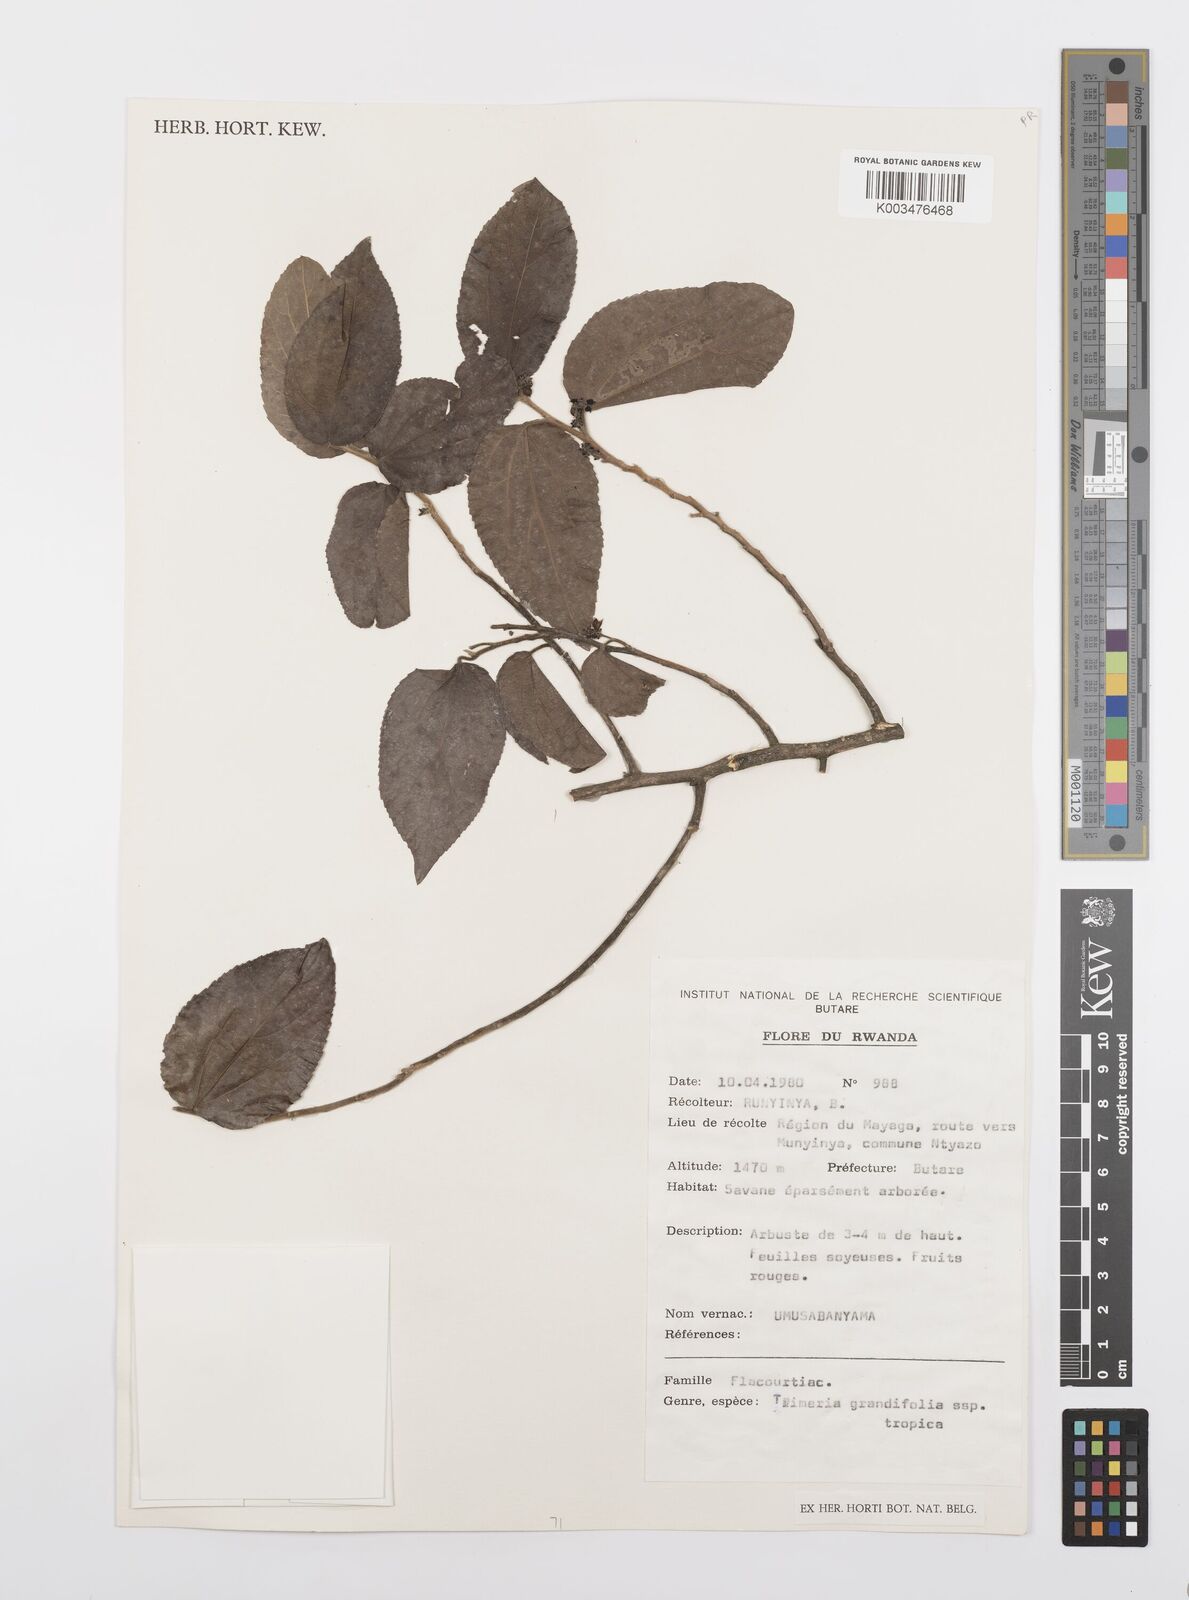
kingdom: Plantae
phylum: Tracheophyta
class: Magnoliopsida
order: Malpighiales
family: Salicaceae
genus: Trimeria
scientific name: Trimeria grandifolia
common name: Wild mulberry
